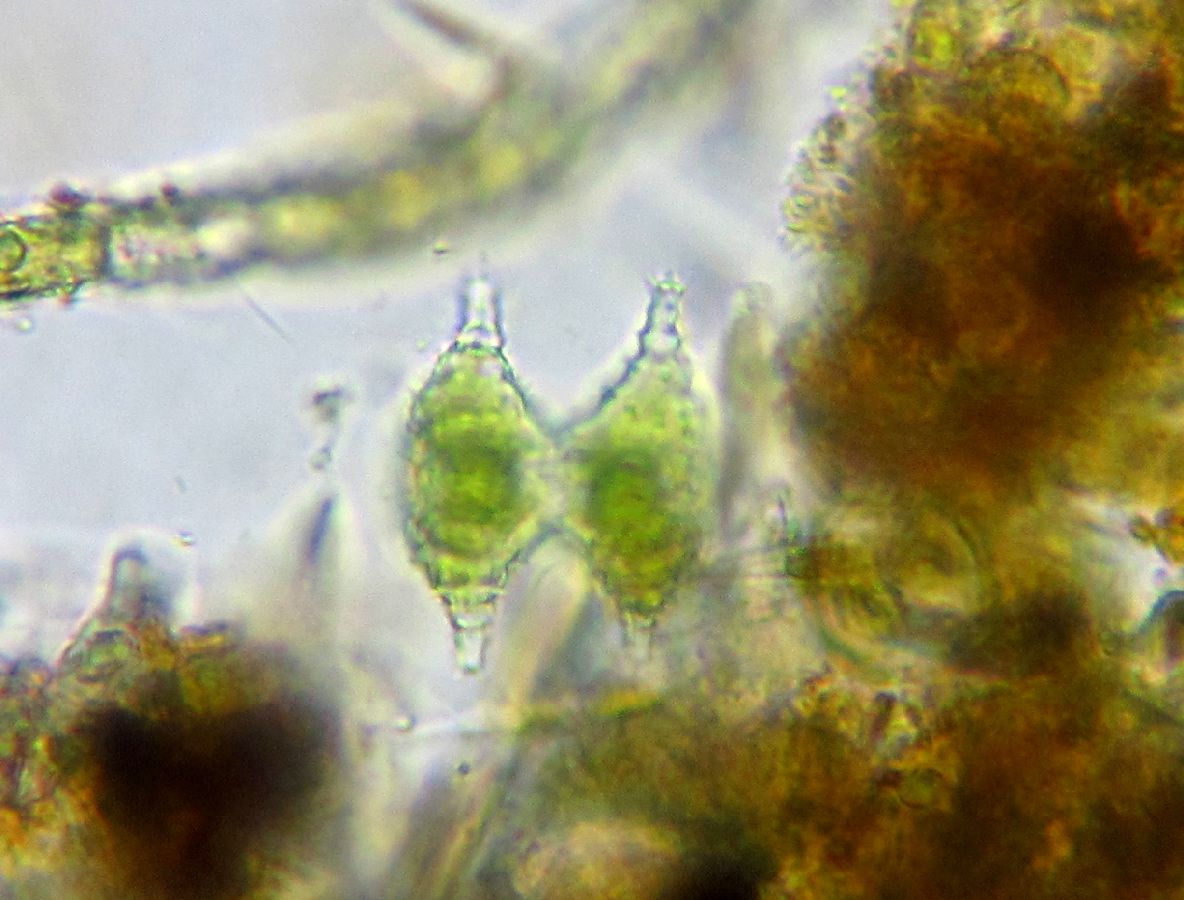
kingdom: Plantae
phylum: Charophyta
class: Conjugatophyceae
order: Desmidiales
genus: Staurastrum
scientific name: Staurastrum cingulum
